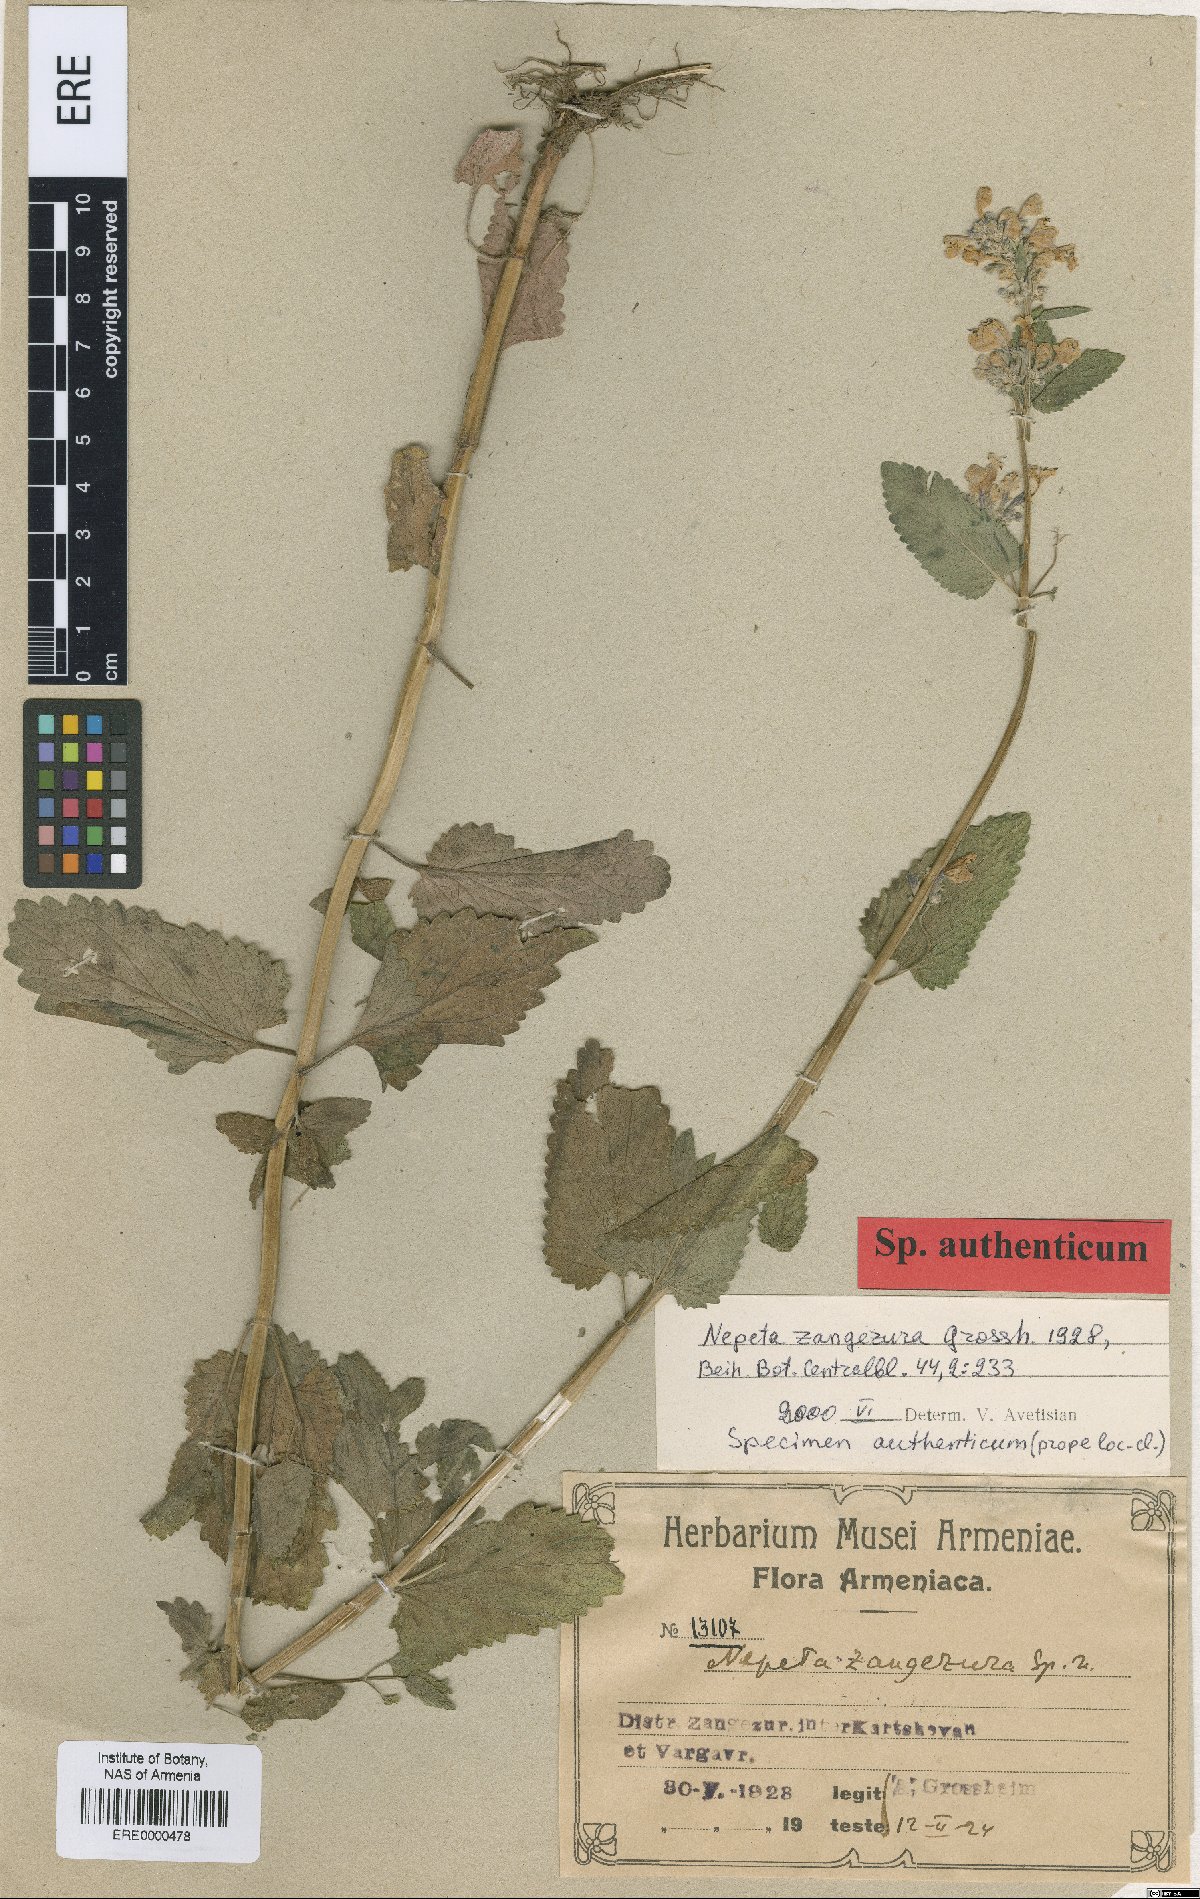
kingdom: Plantae
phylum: Tracheophyta
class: Magnoliopsida
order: Lamiales
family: Lamiaceae
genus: Nepeta
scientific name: Nepeta zangezura
